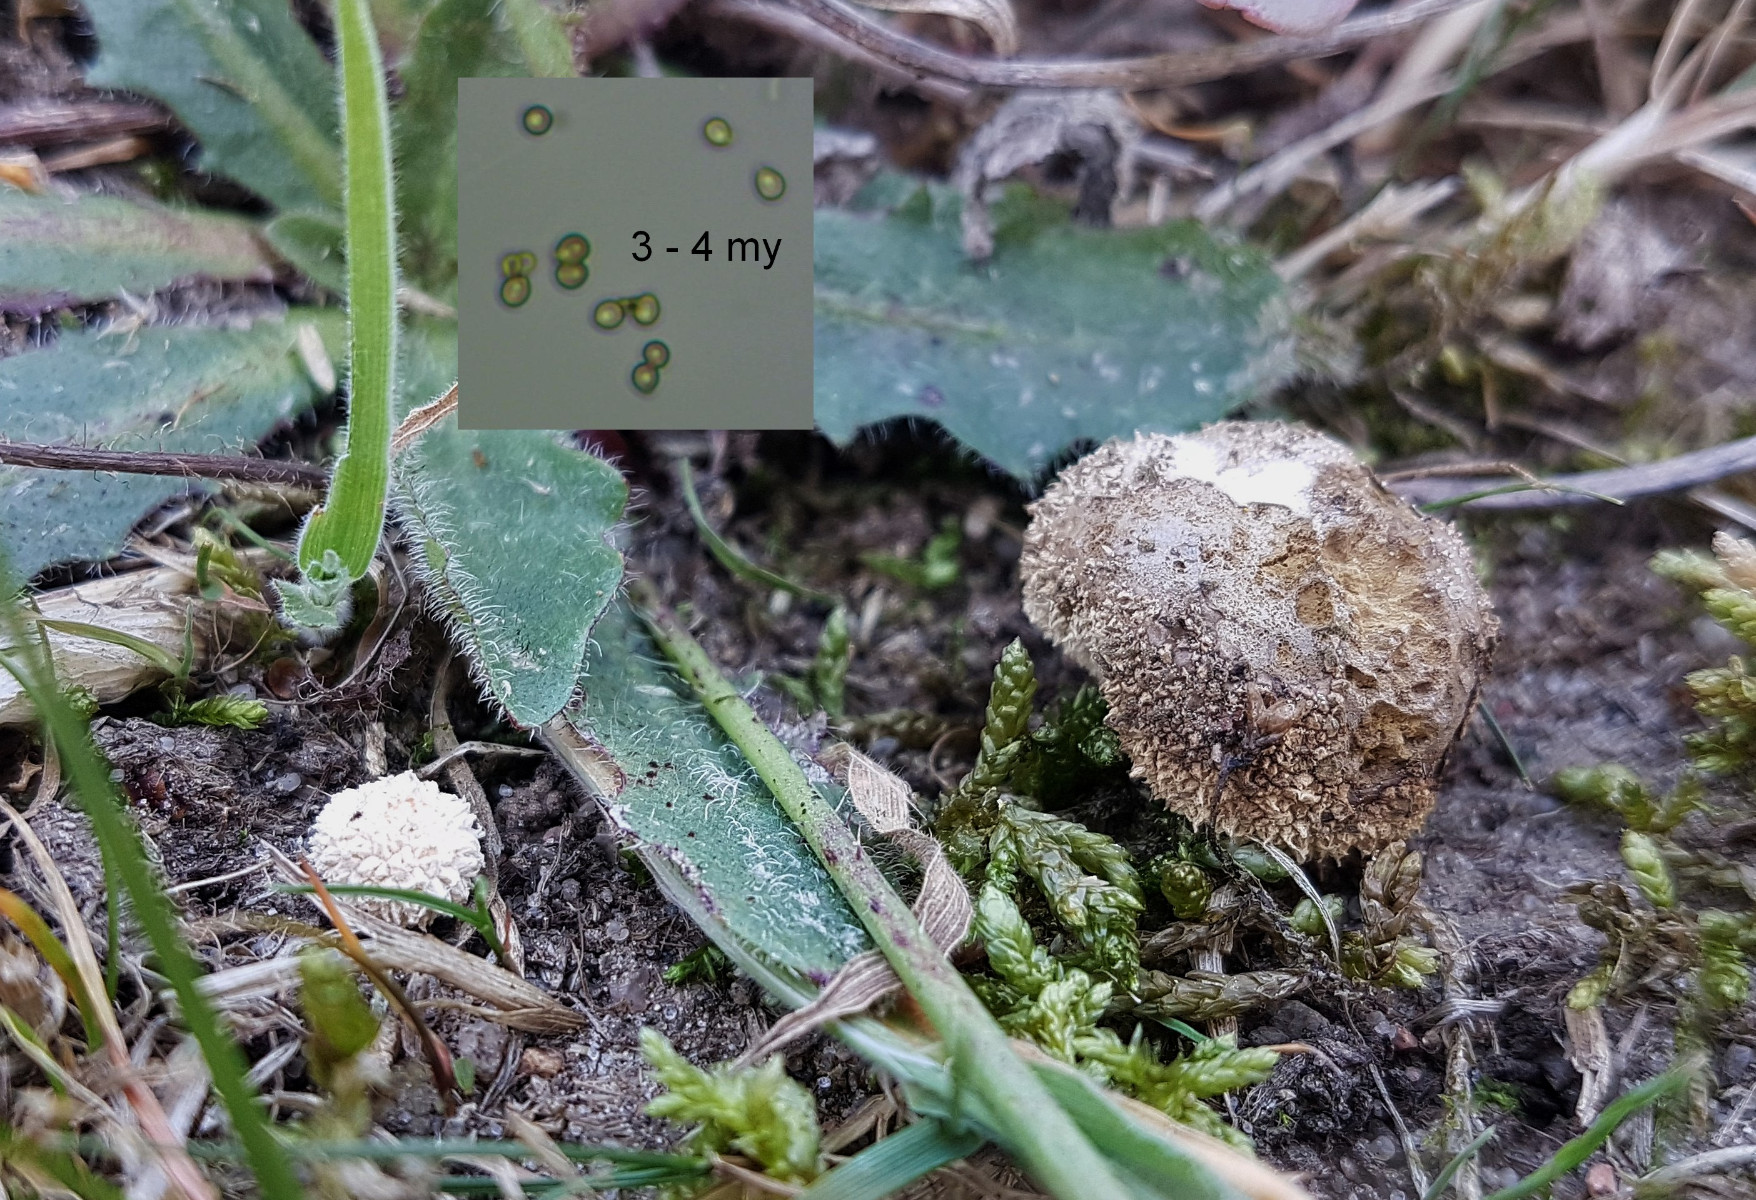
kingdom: Fungi
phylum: Basidiomycota
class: Agaricomycetes
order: Agaricales
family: Lycoperdaceae
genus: Lycoperdon
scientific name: Lycoperdon pratense
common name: flad støvbold
